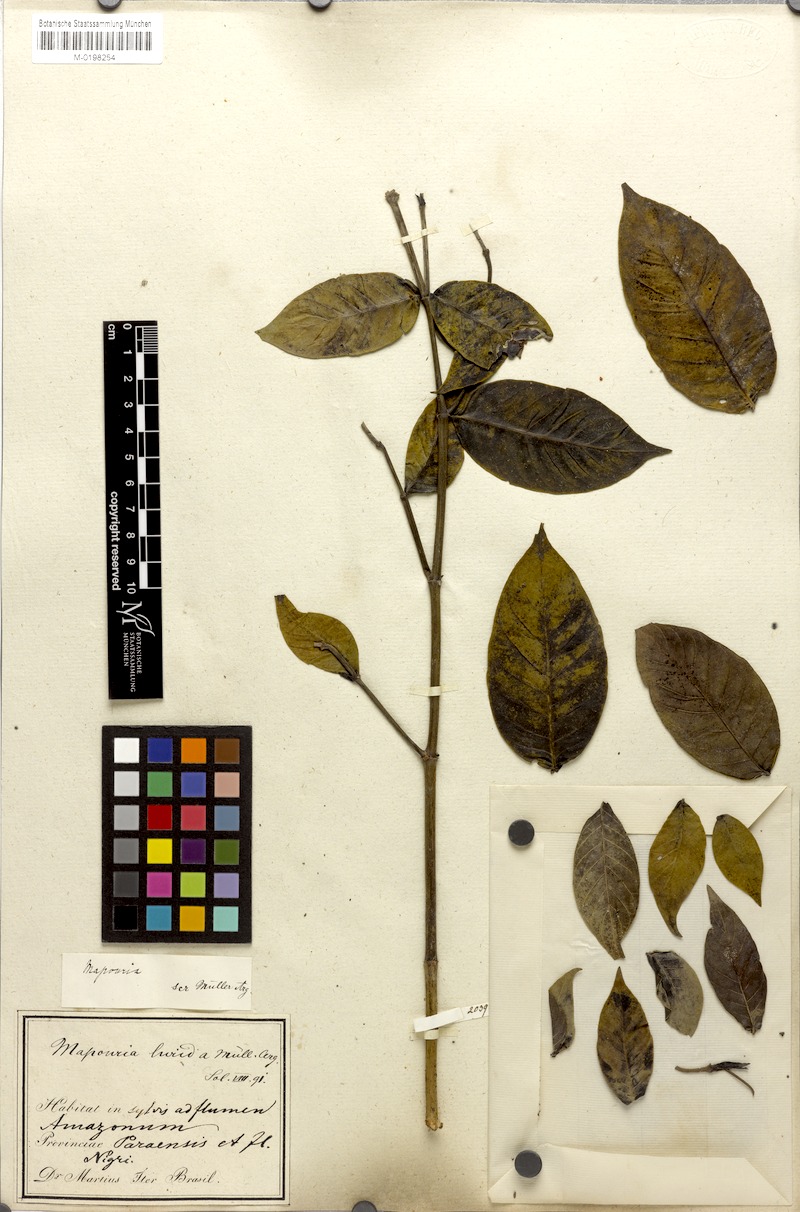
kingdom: Plantae
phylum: Tracheophyta
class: Magnoliopsida
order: Gentianales
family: Rubiaceae
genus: Psychotria
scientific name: Psychotria Mapouria lurida
